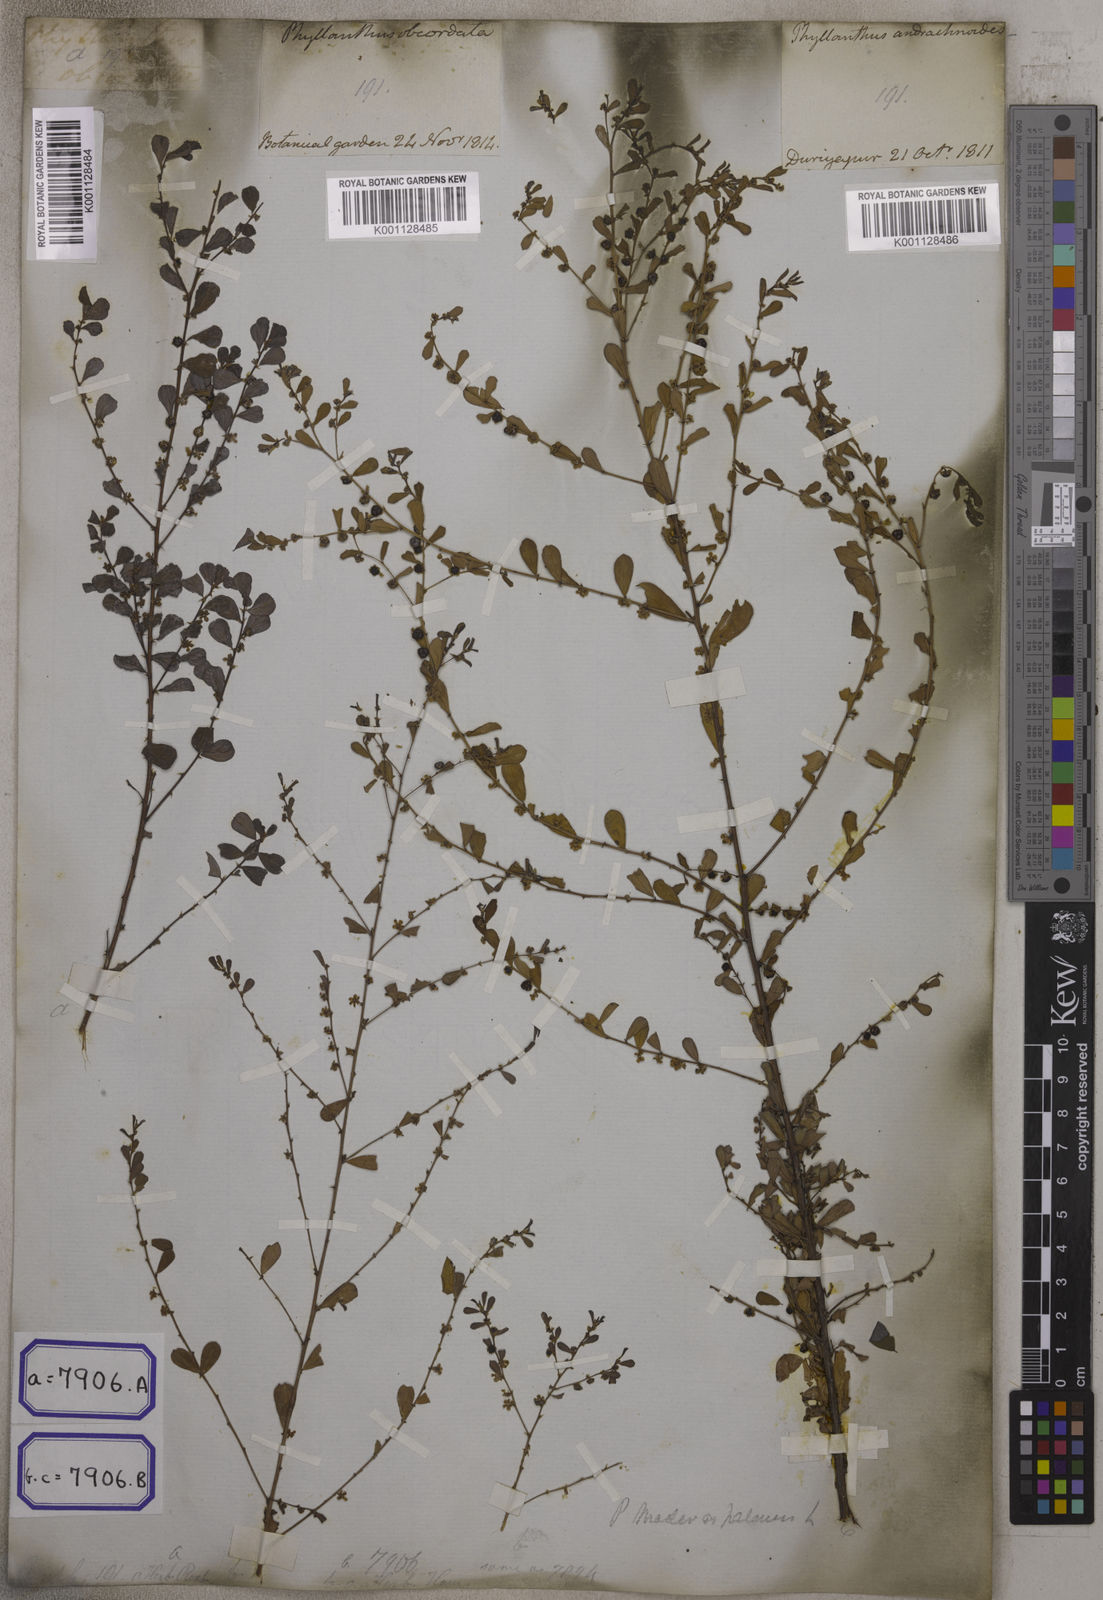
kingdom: Plantae
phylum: Tracheophyta
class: Magnoliopsida
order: Malpighiales
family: Euphorbiaceae
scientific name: Euphorbiaceae
